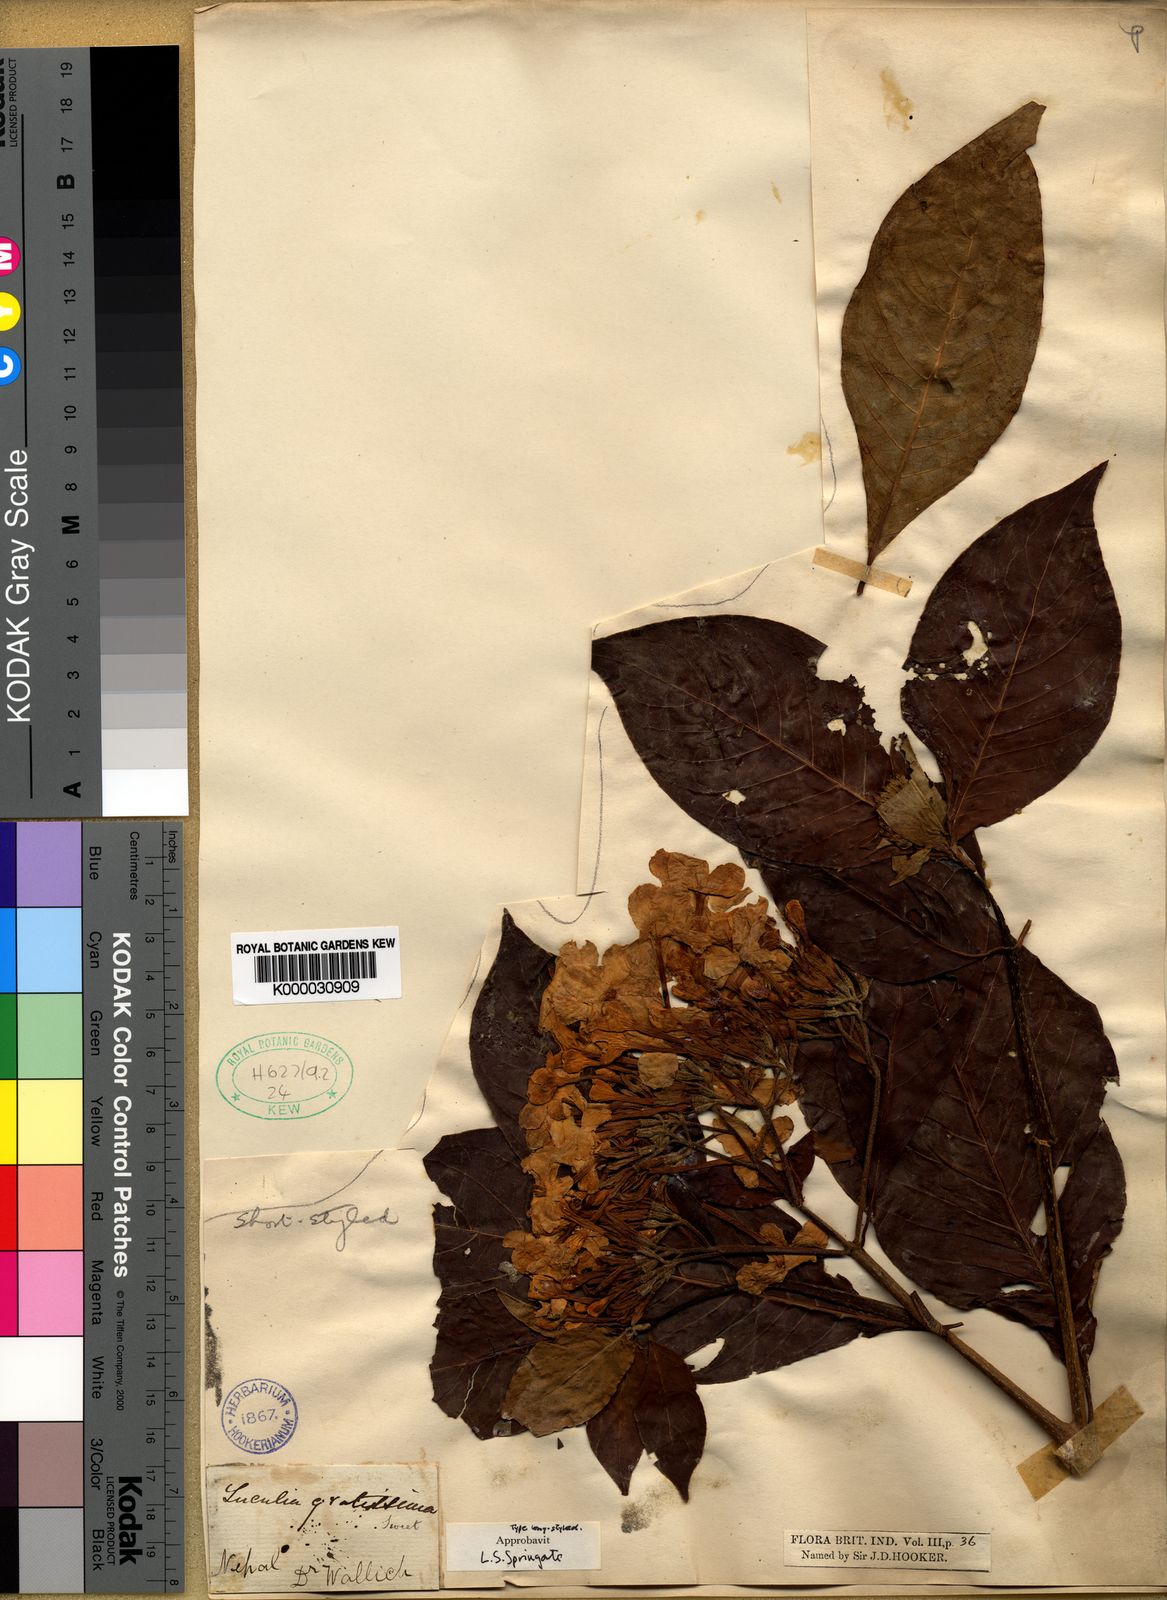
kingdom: Plantae
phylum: Tracheophyta
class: Magnoliopsida
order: Gentianales
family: Rubiaceae
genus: Luculia
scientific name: Luculia gratissima
